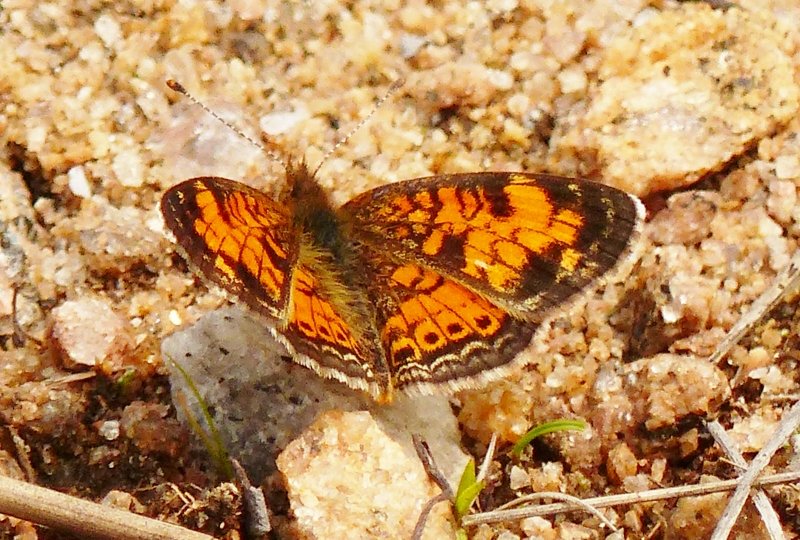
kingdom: Animalia
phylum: Arthropoda
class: Insecta
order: Lepidoptera
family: Nymphalidae
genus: Phyciodes
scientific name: Phyciodes tharos
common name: Northern Crescent
